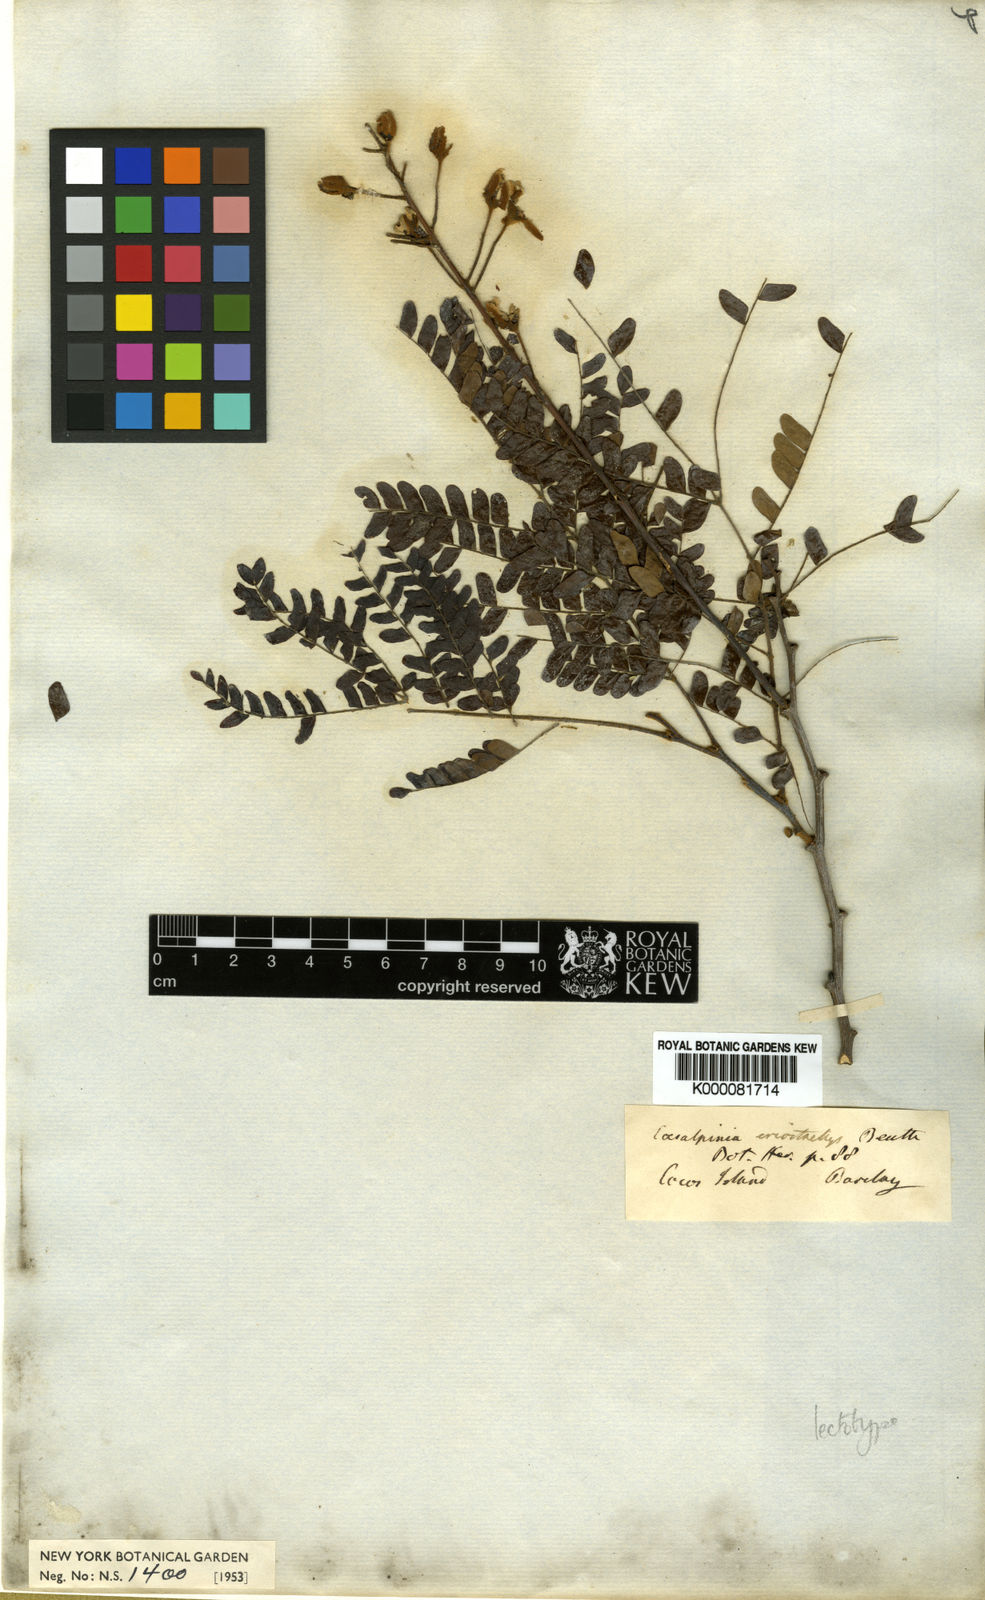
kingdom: Plantae
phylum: Tracheophyta
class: Magnoliopsida
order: Fabales
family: Fabaceae
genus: Cenostigma
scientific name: Cenostigma eriostachys
